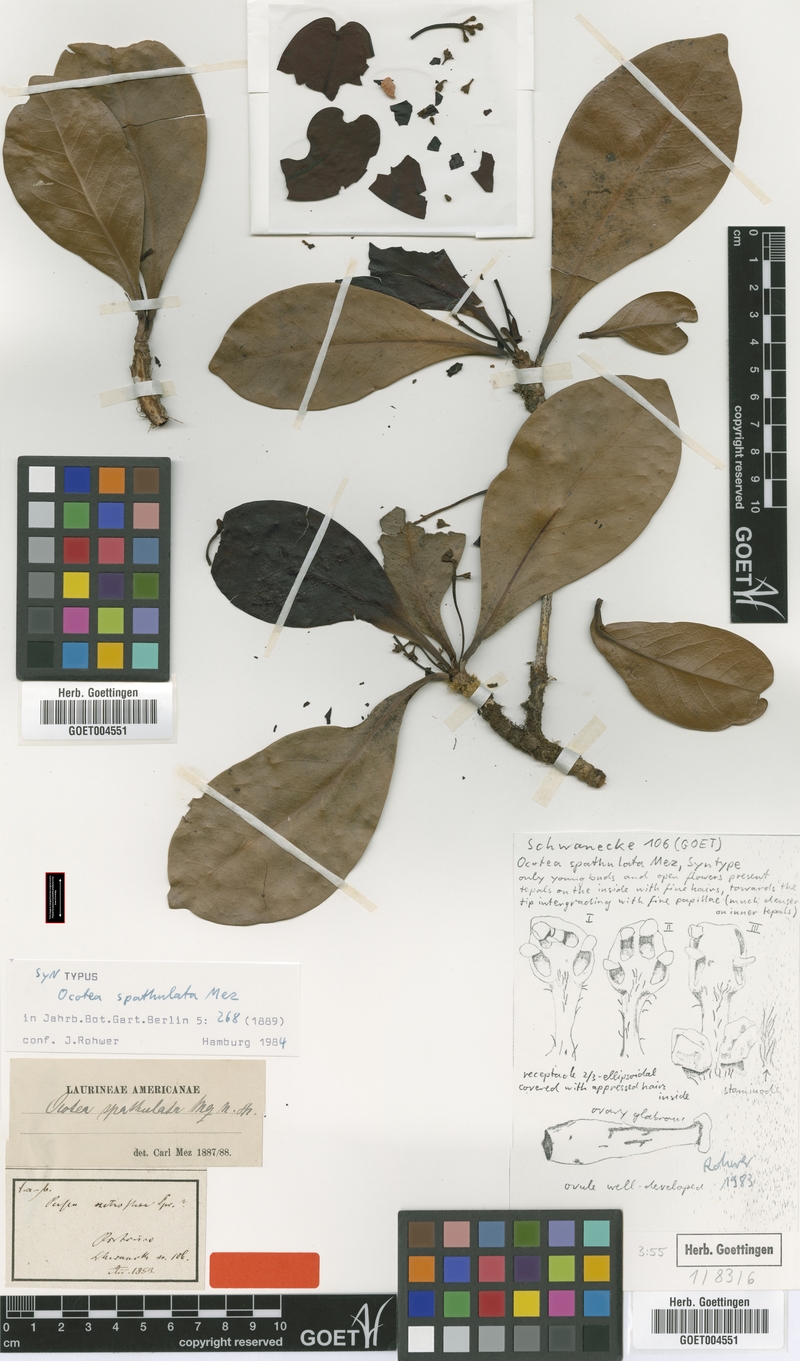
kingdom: Plantae
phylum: Tracheophyta
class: Magnoliopsida
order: Laurales
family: Lauraceae
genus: Ocotea
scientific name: Ocotea spathulata
